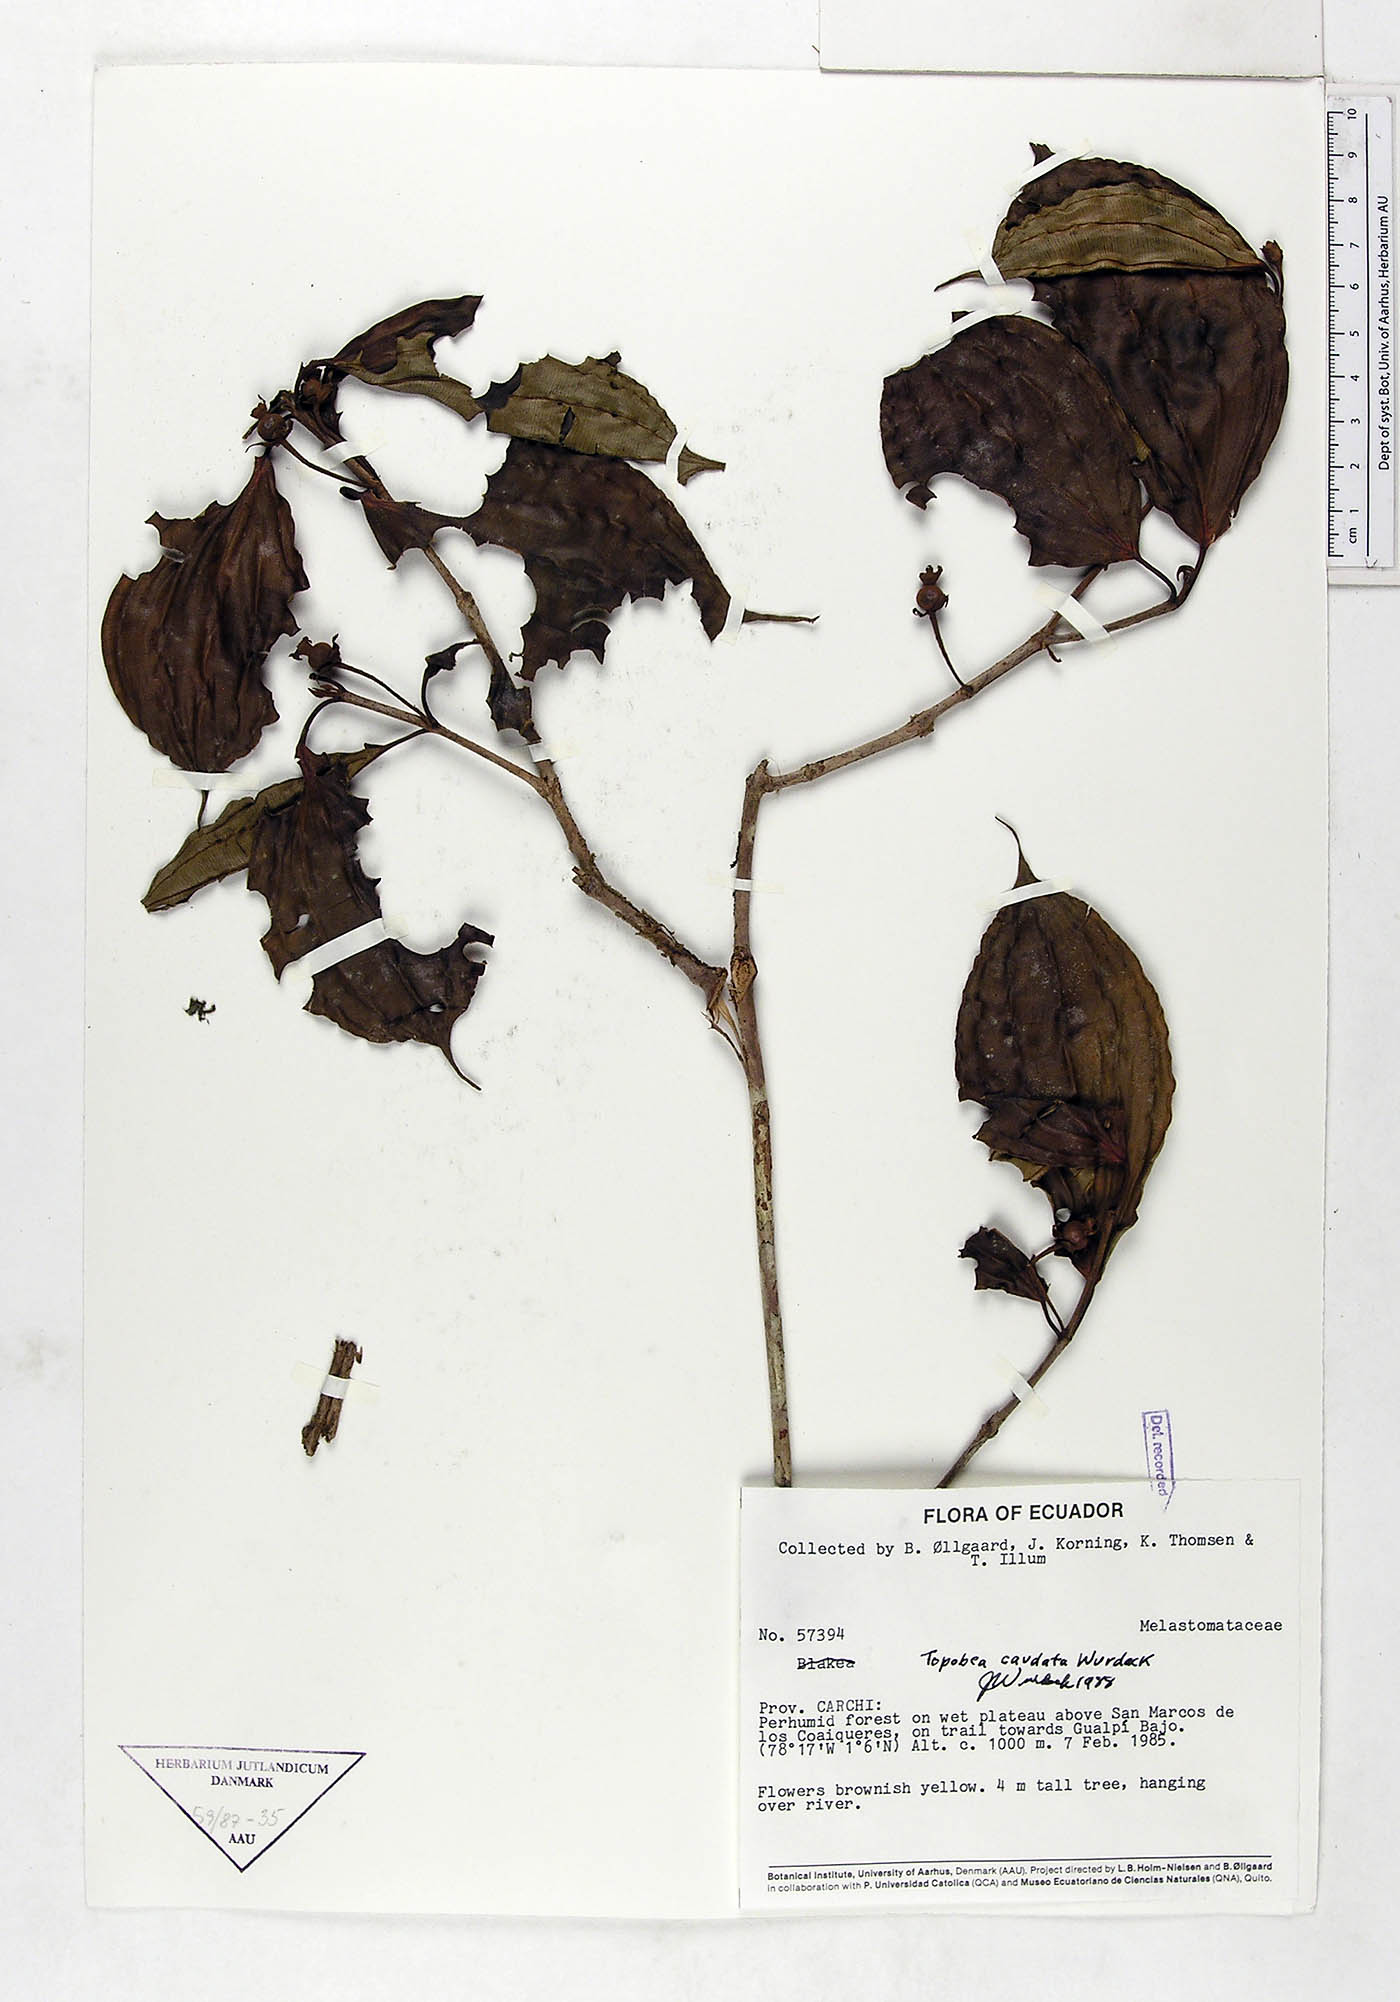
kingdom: Plantae
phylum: Tracheophyta
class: Magnoliopsida
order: Myrtales
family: Melastomataceae
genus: Blakea
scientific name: Blakea horologica
